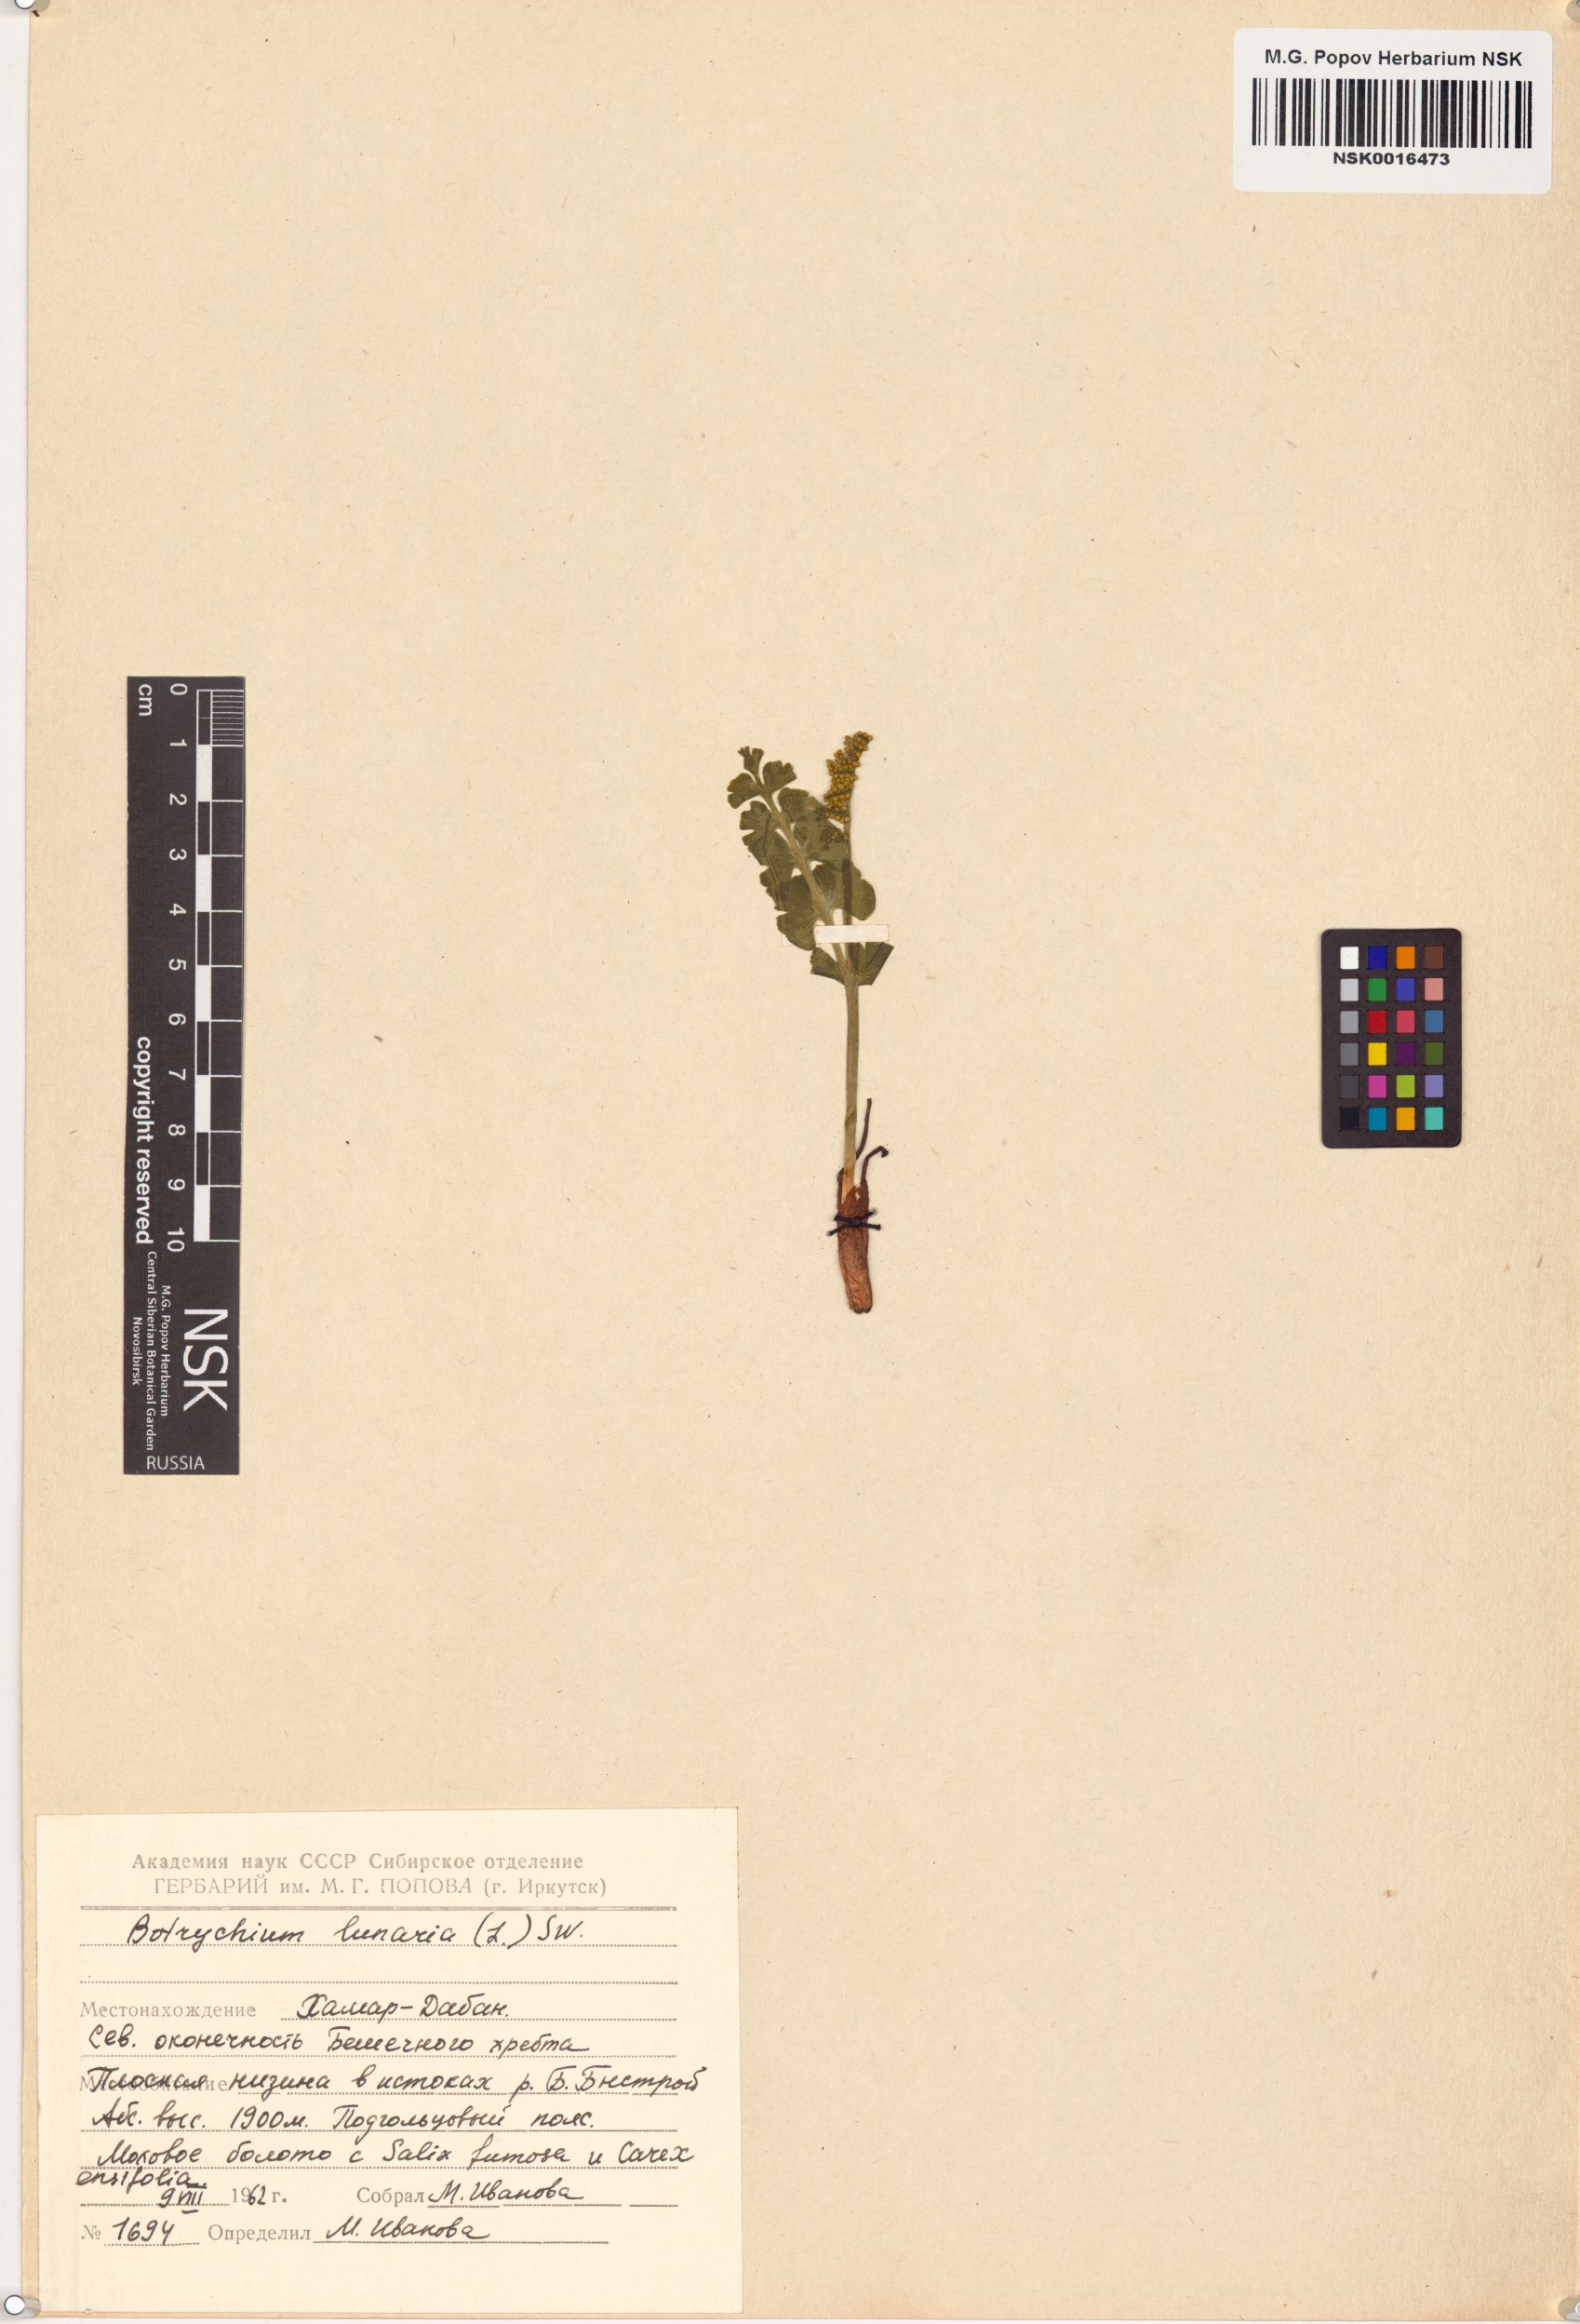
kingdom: Plantae
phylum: Tracheophyta
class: Polypodiopsida
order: Ophioglossales
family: Ophioglossaceae
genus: Botrychium
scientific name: Botrychium lunaria
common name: Moonwort
